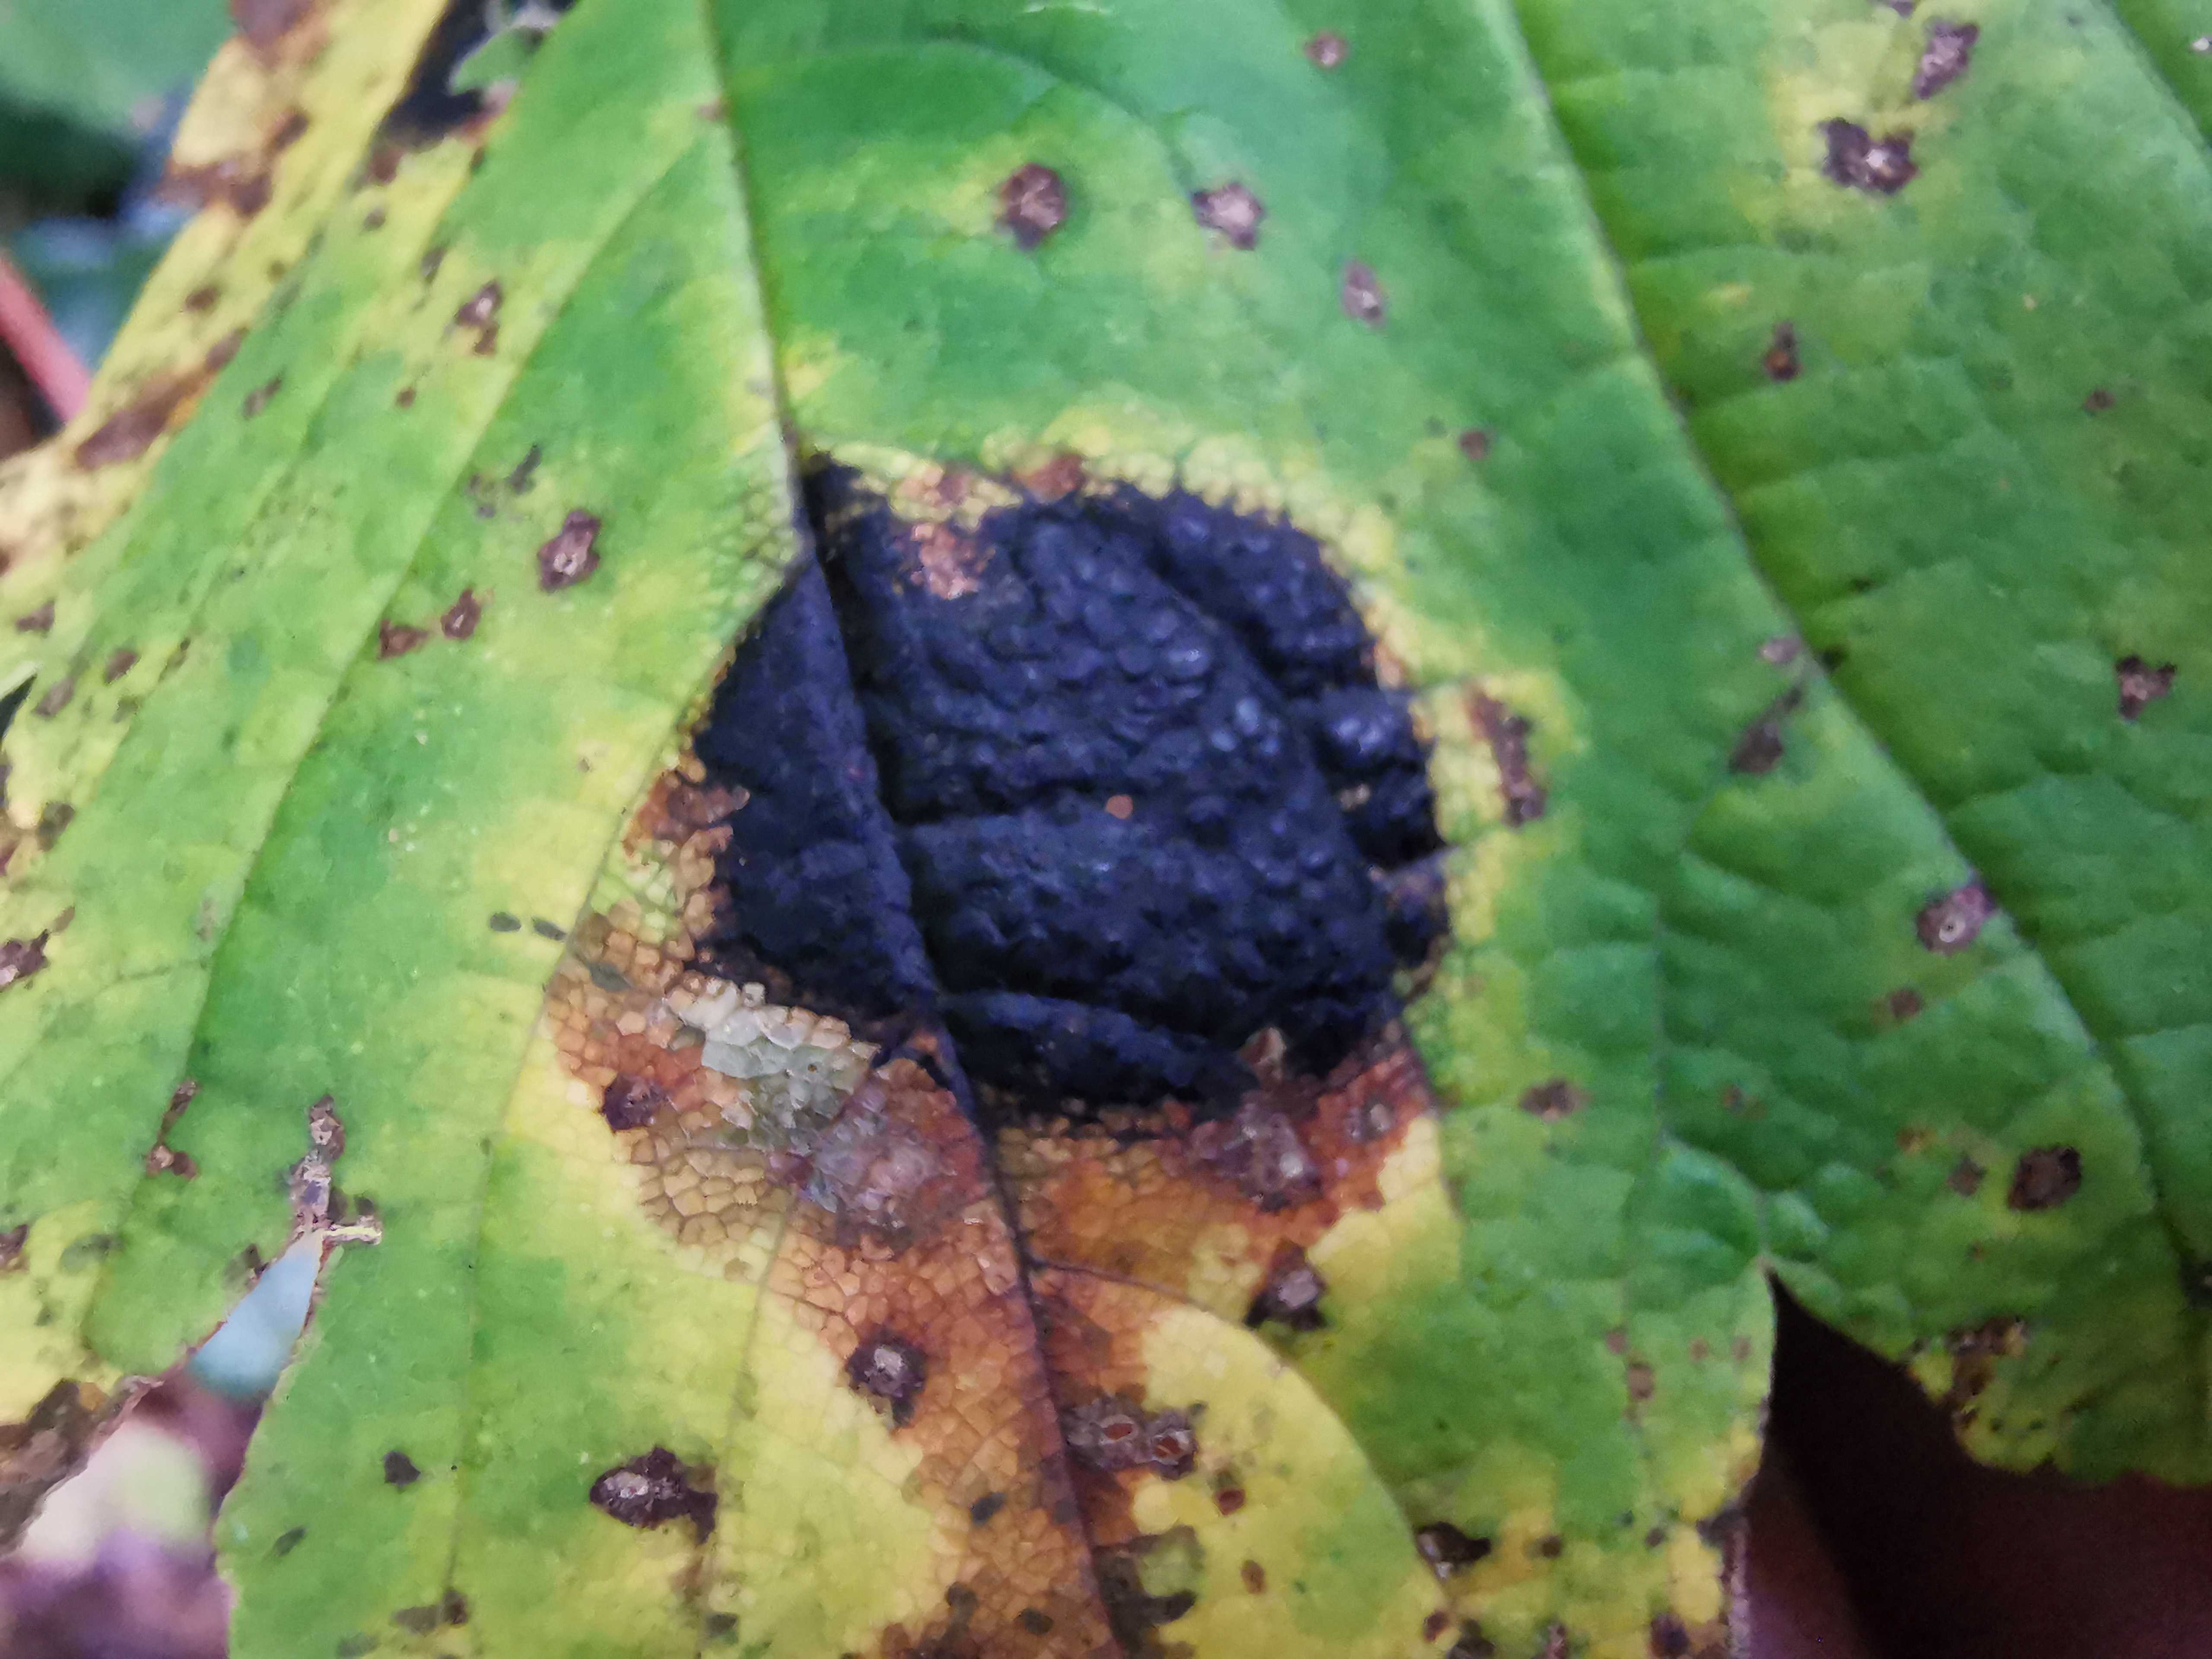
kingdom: Fungi
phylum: Ascomycota
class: Leotiomycetes
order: Rhytismatales
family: Rhytismataceae
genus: Rhytisma
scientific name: Rhytisma acerinum
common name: ahorn-rynkeplet
